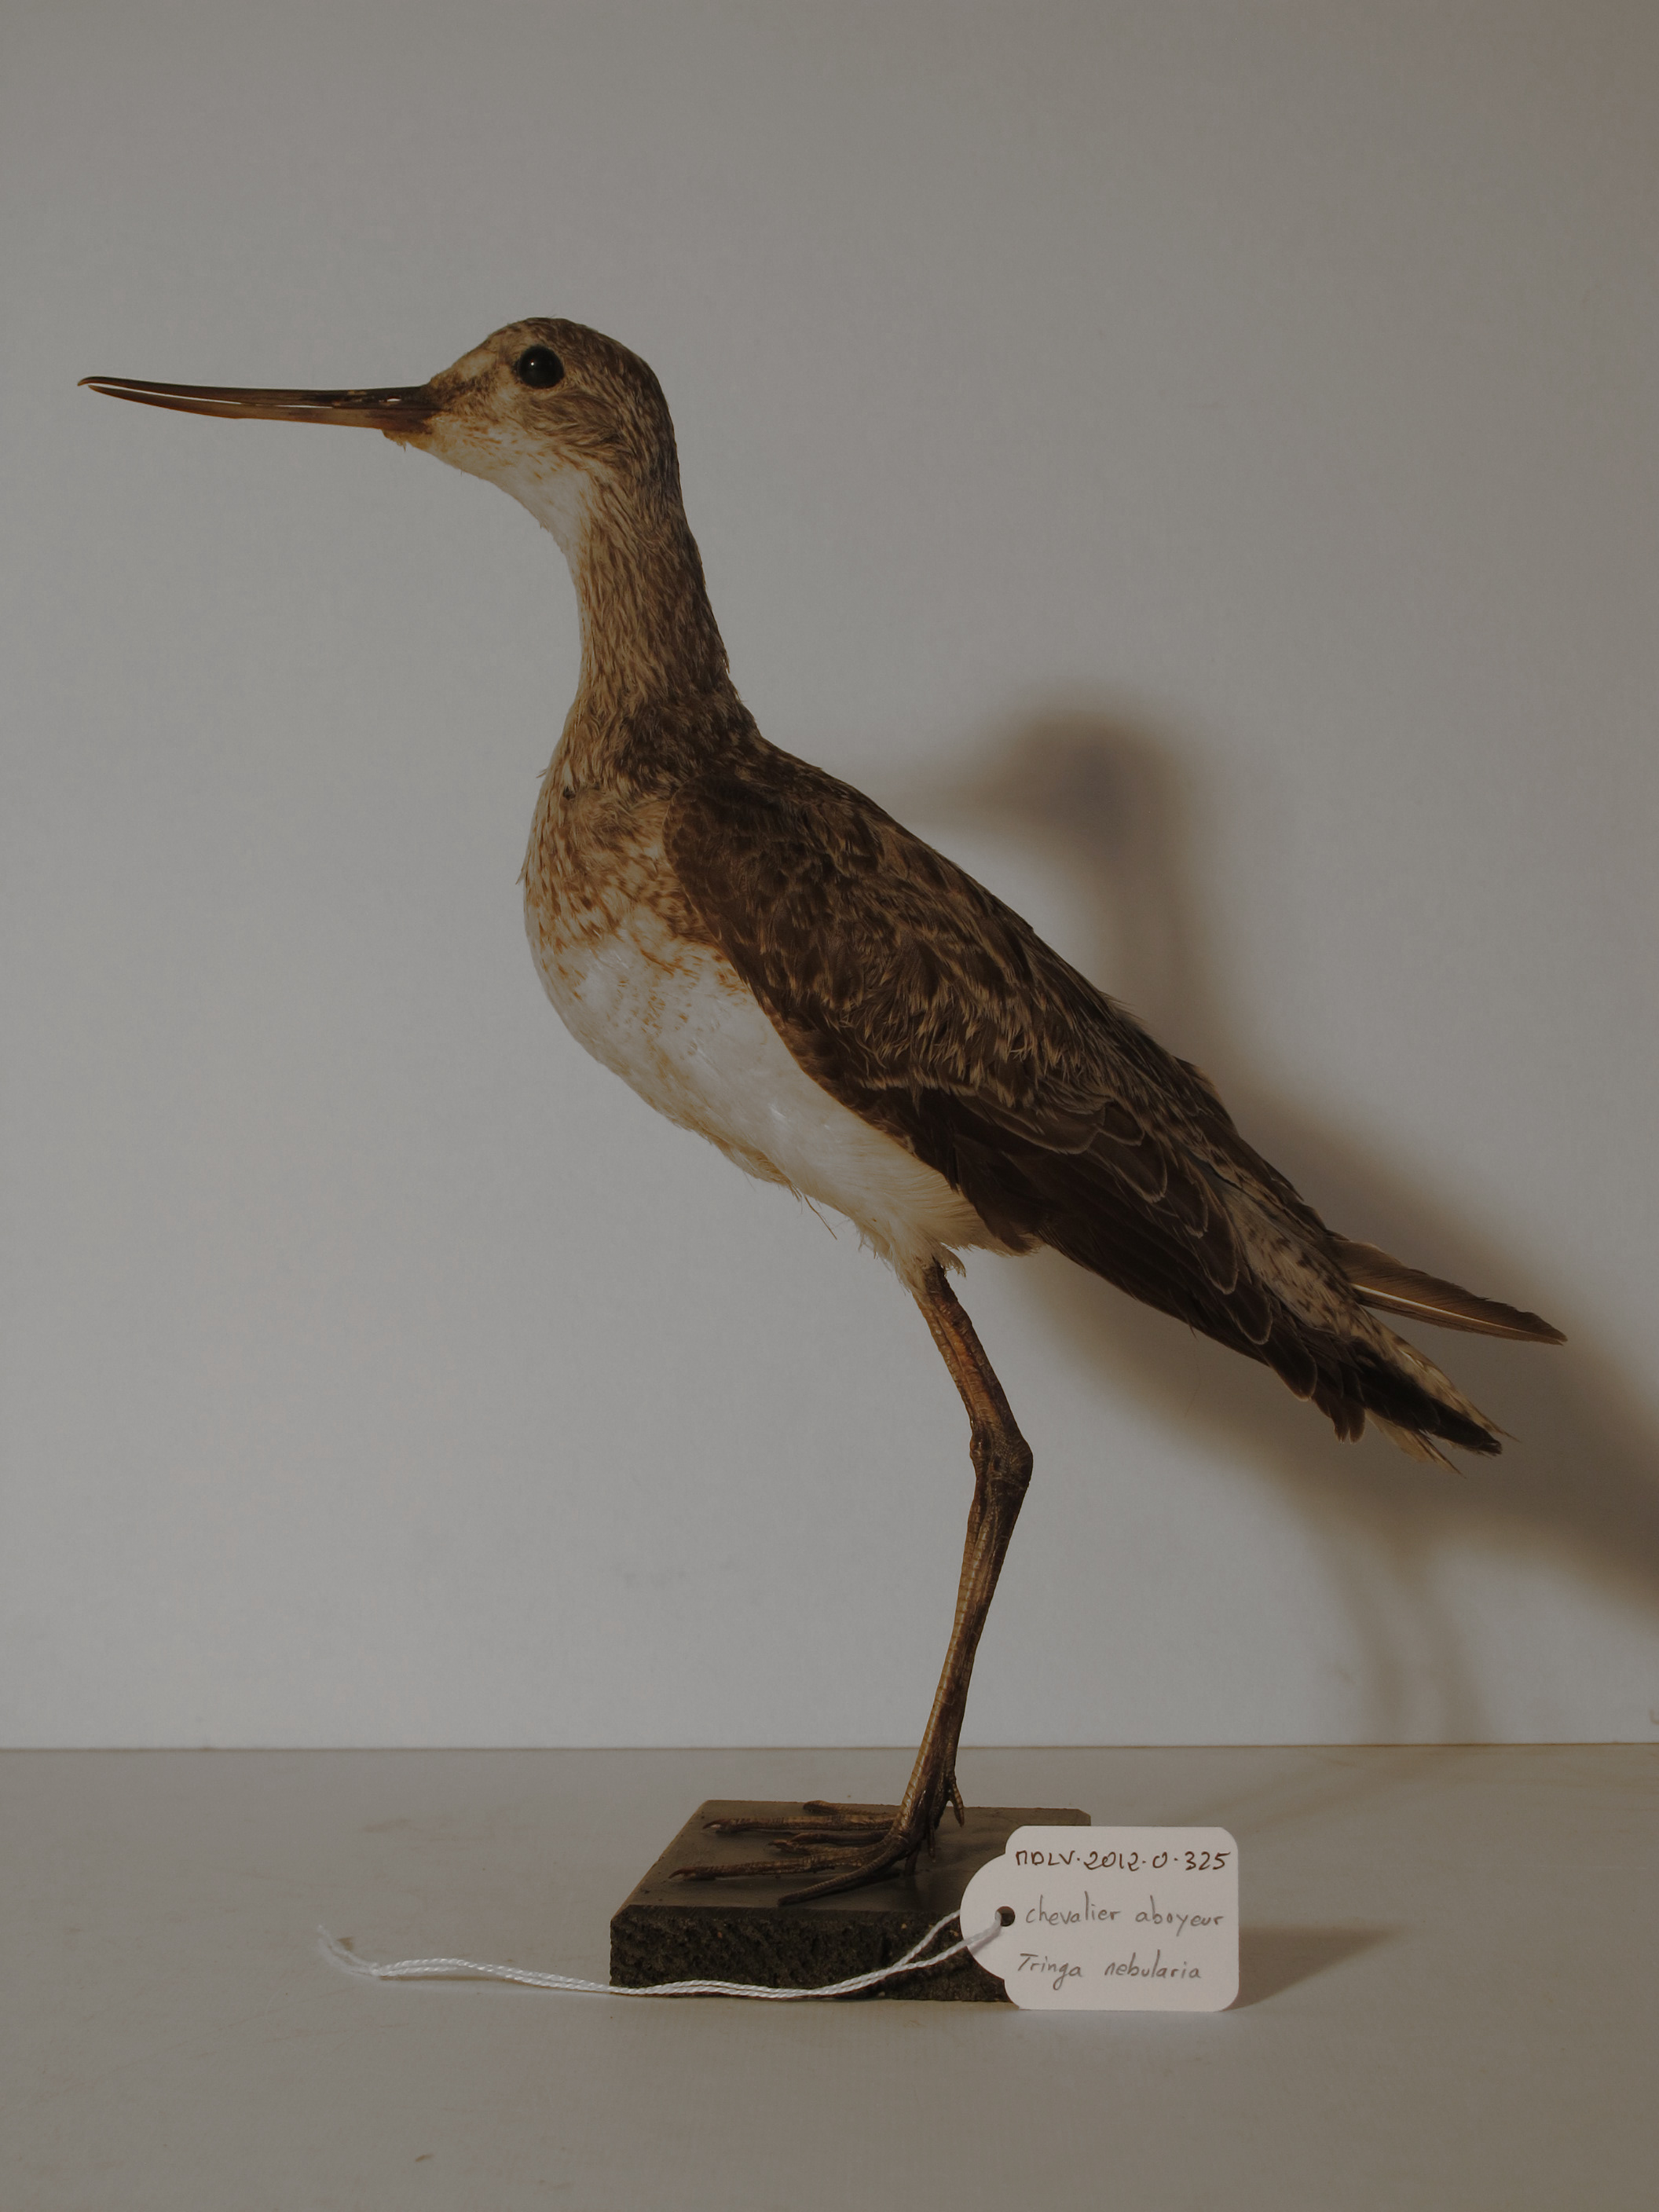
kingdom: Animalia
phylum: Chordata
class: Aves
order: Charadriiformes
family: Scolopacidae
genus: Tringa
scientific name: Tringa nebularia
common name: Common Greenshank
